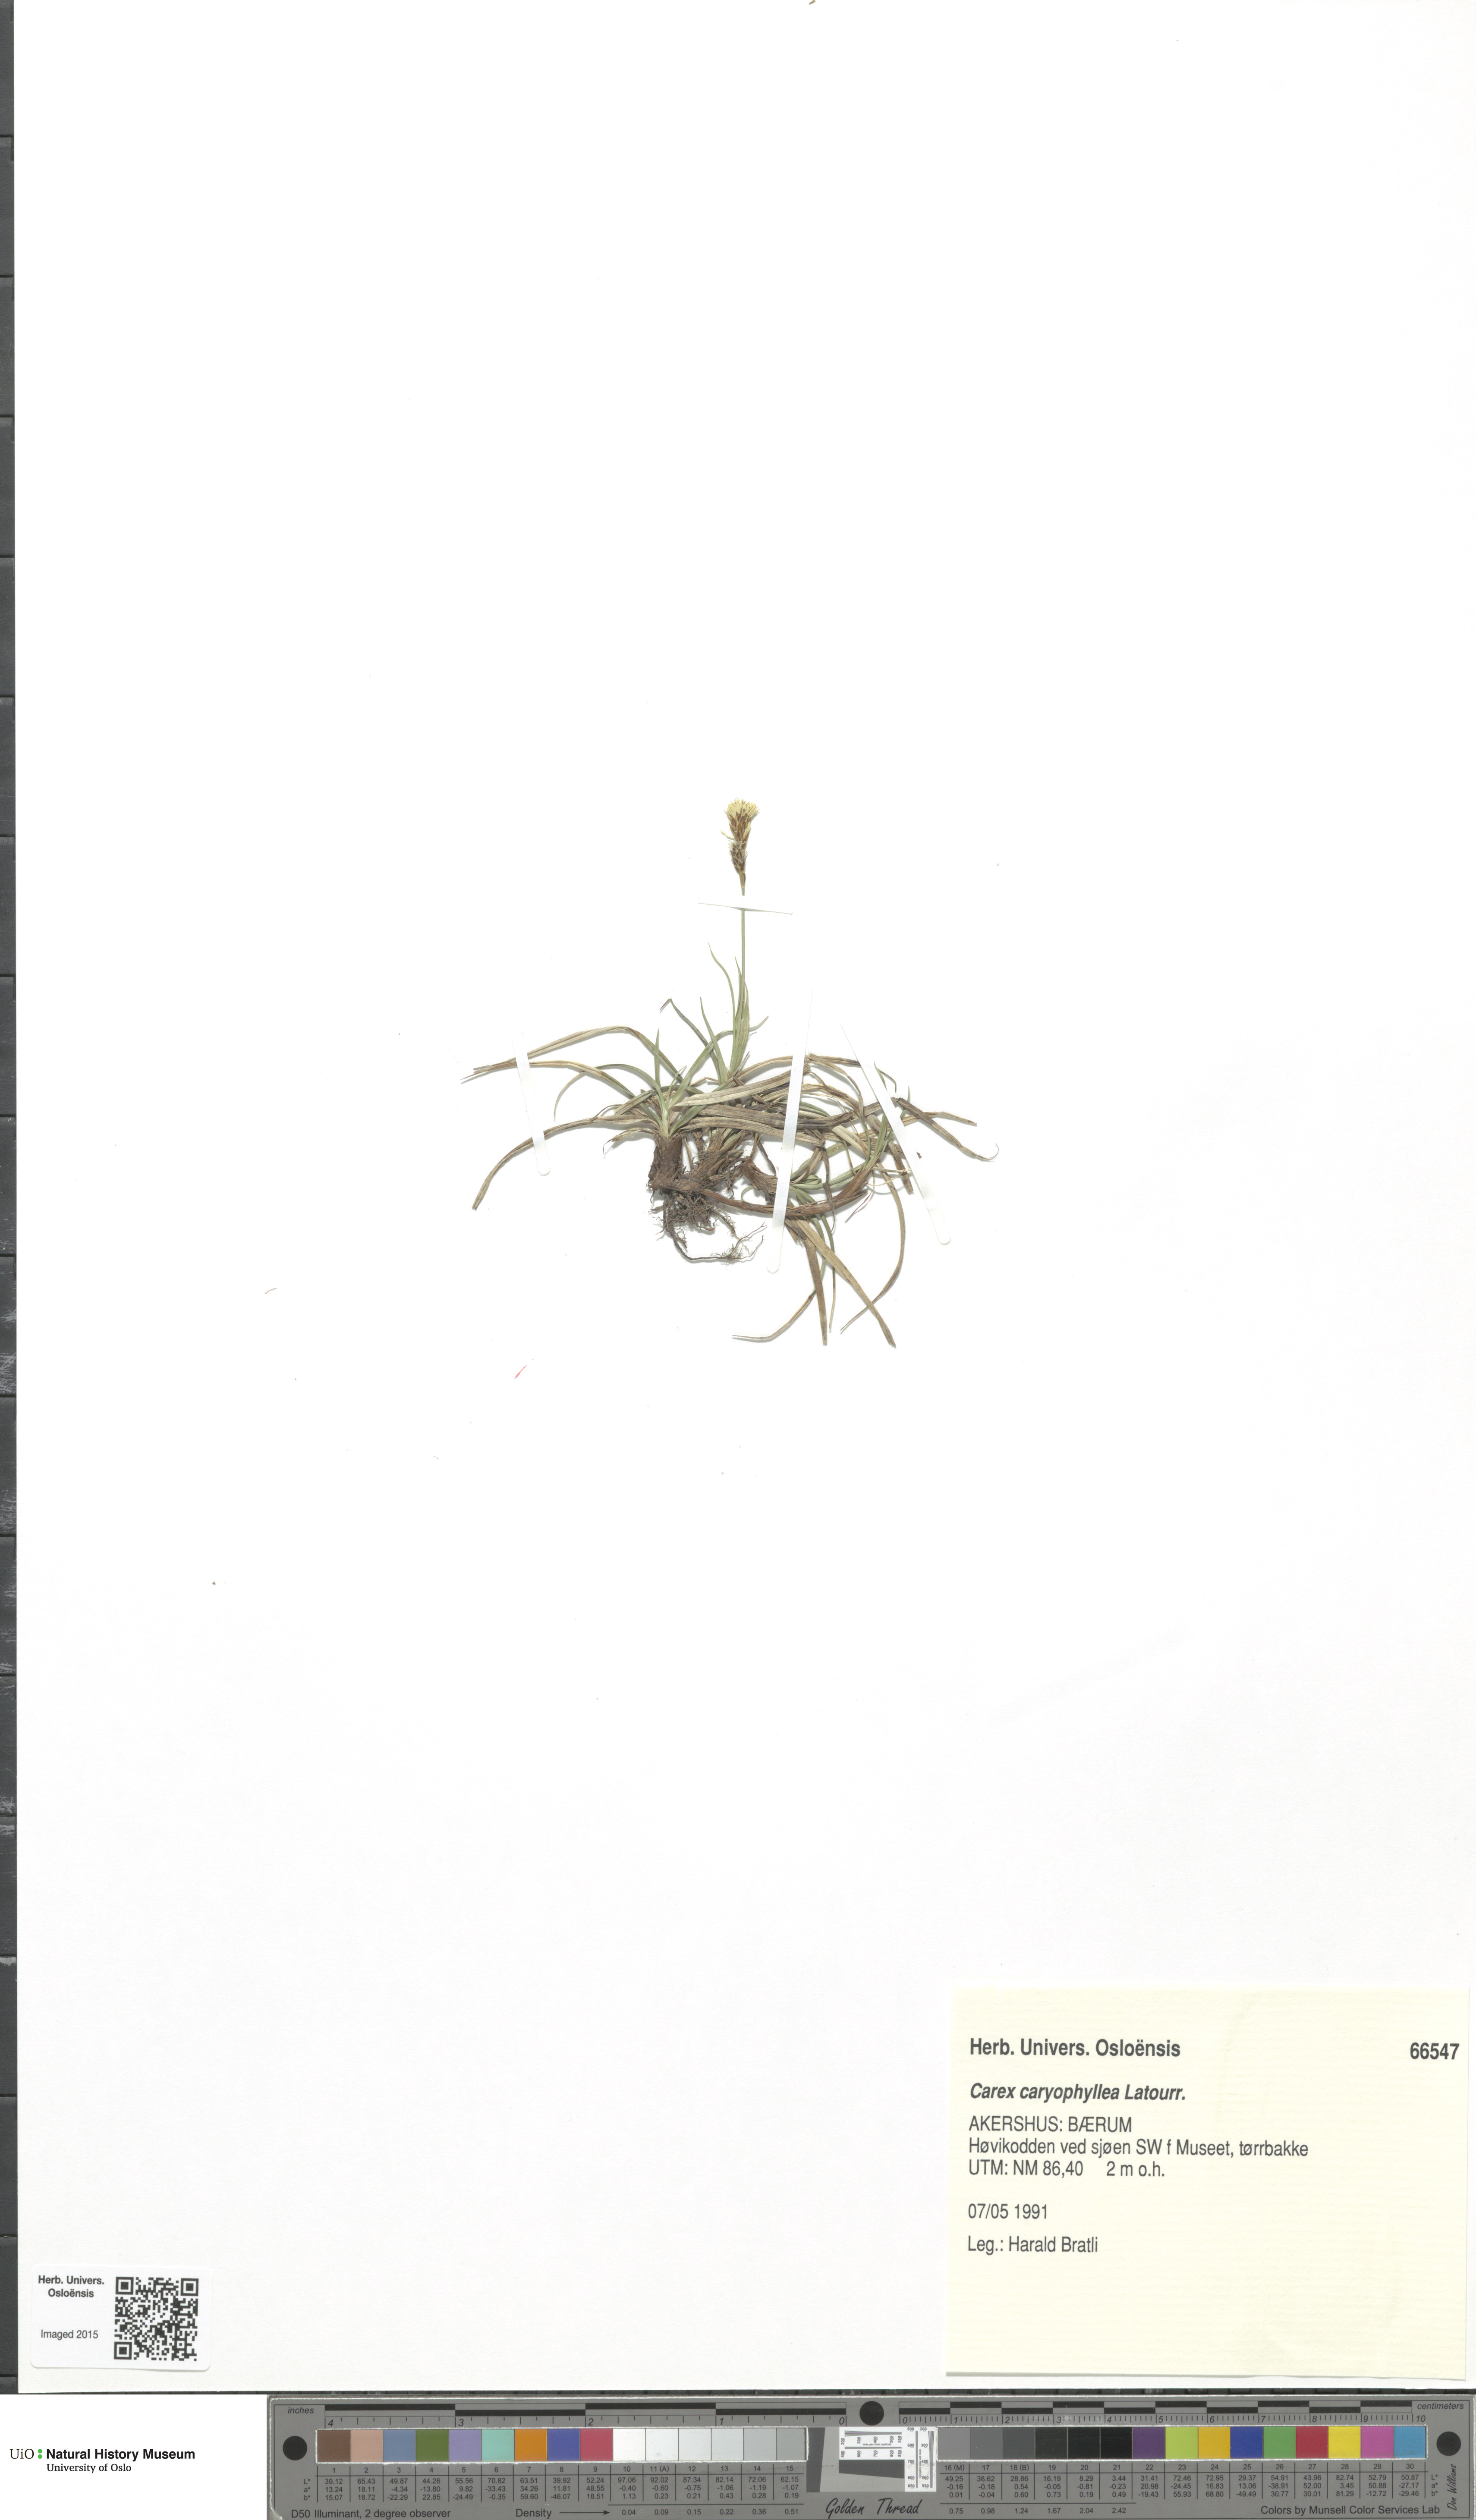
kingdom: Plantae
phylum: Tracheophyta
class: Liliopsida
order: Poales
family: Cyperaceae
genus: Carex
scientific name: Carex caryophyllea
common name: Spring sedge
